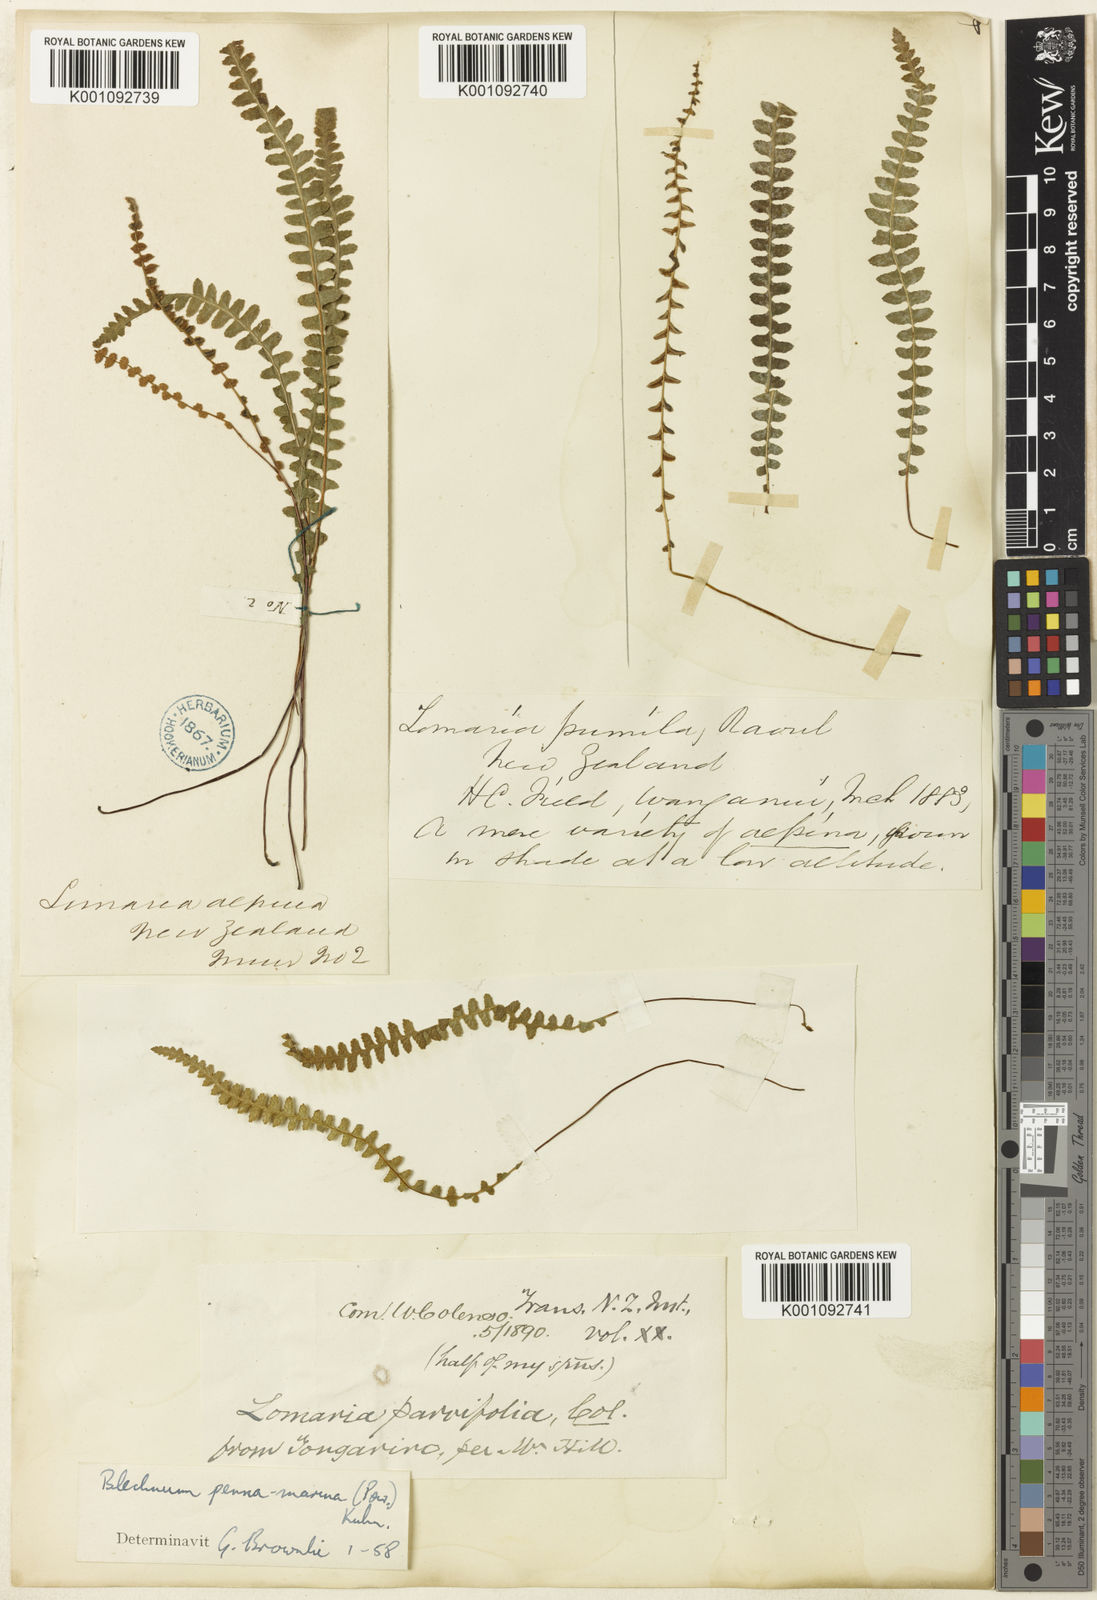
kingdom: Plantae
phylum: Tracheophyta
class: Polypodiopsida
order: Polypodiales
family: Blechnaceae
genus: Austroblechnum
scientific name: Austroblechnum leyboldtianum
